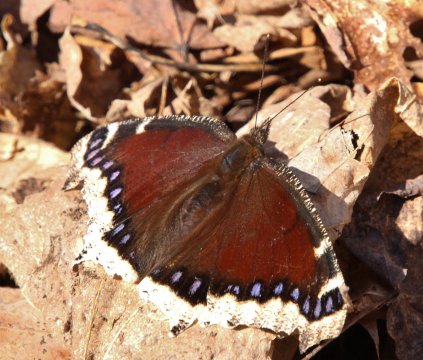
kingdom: Animalia
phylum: Arthropoda
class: Insecta
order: Lepidoptera
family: Nymphalidae
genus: Nymphalis
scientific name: Nymphalis antiopa
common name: Mourning Cloak
